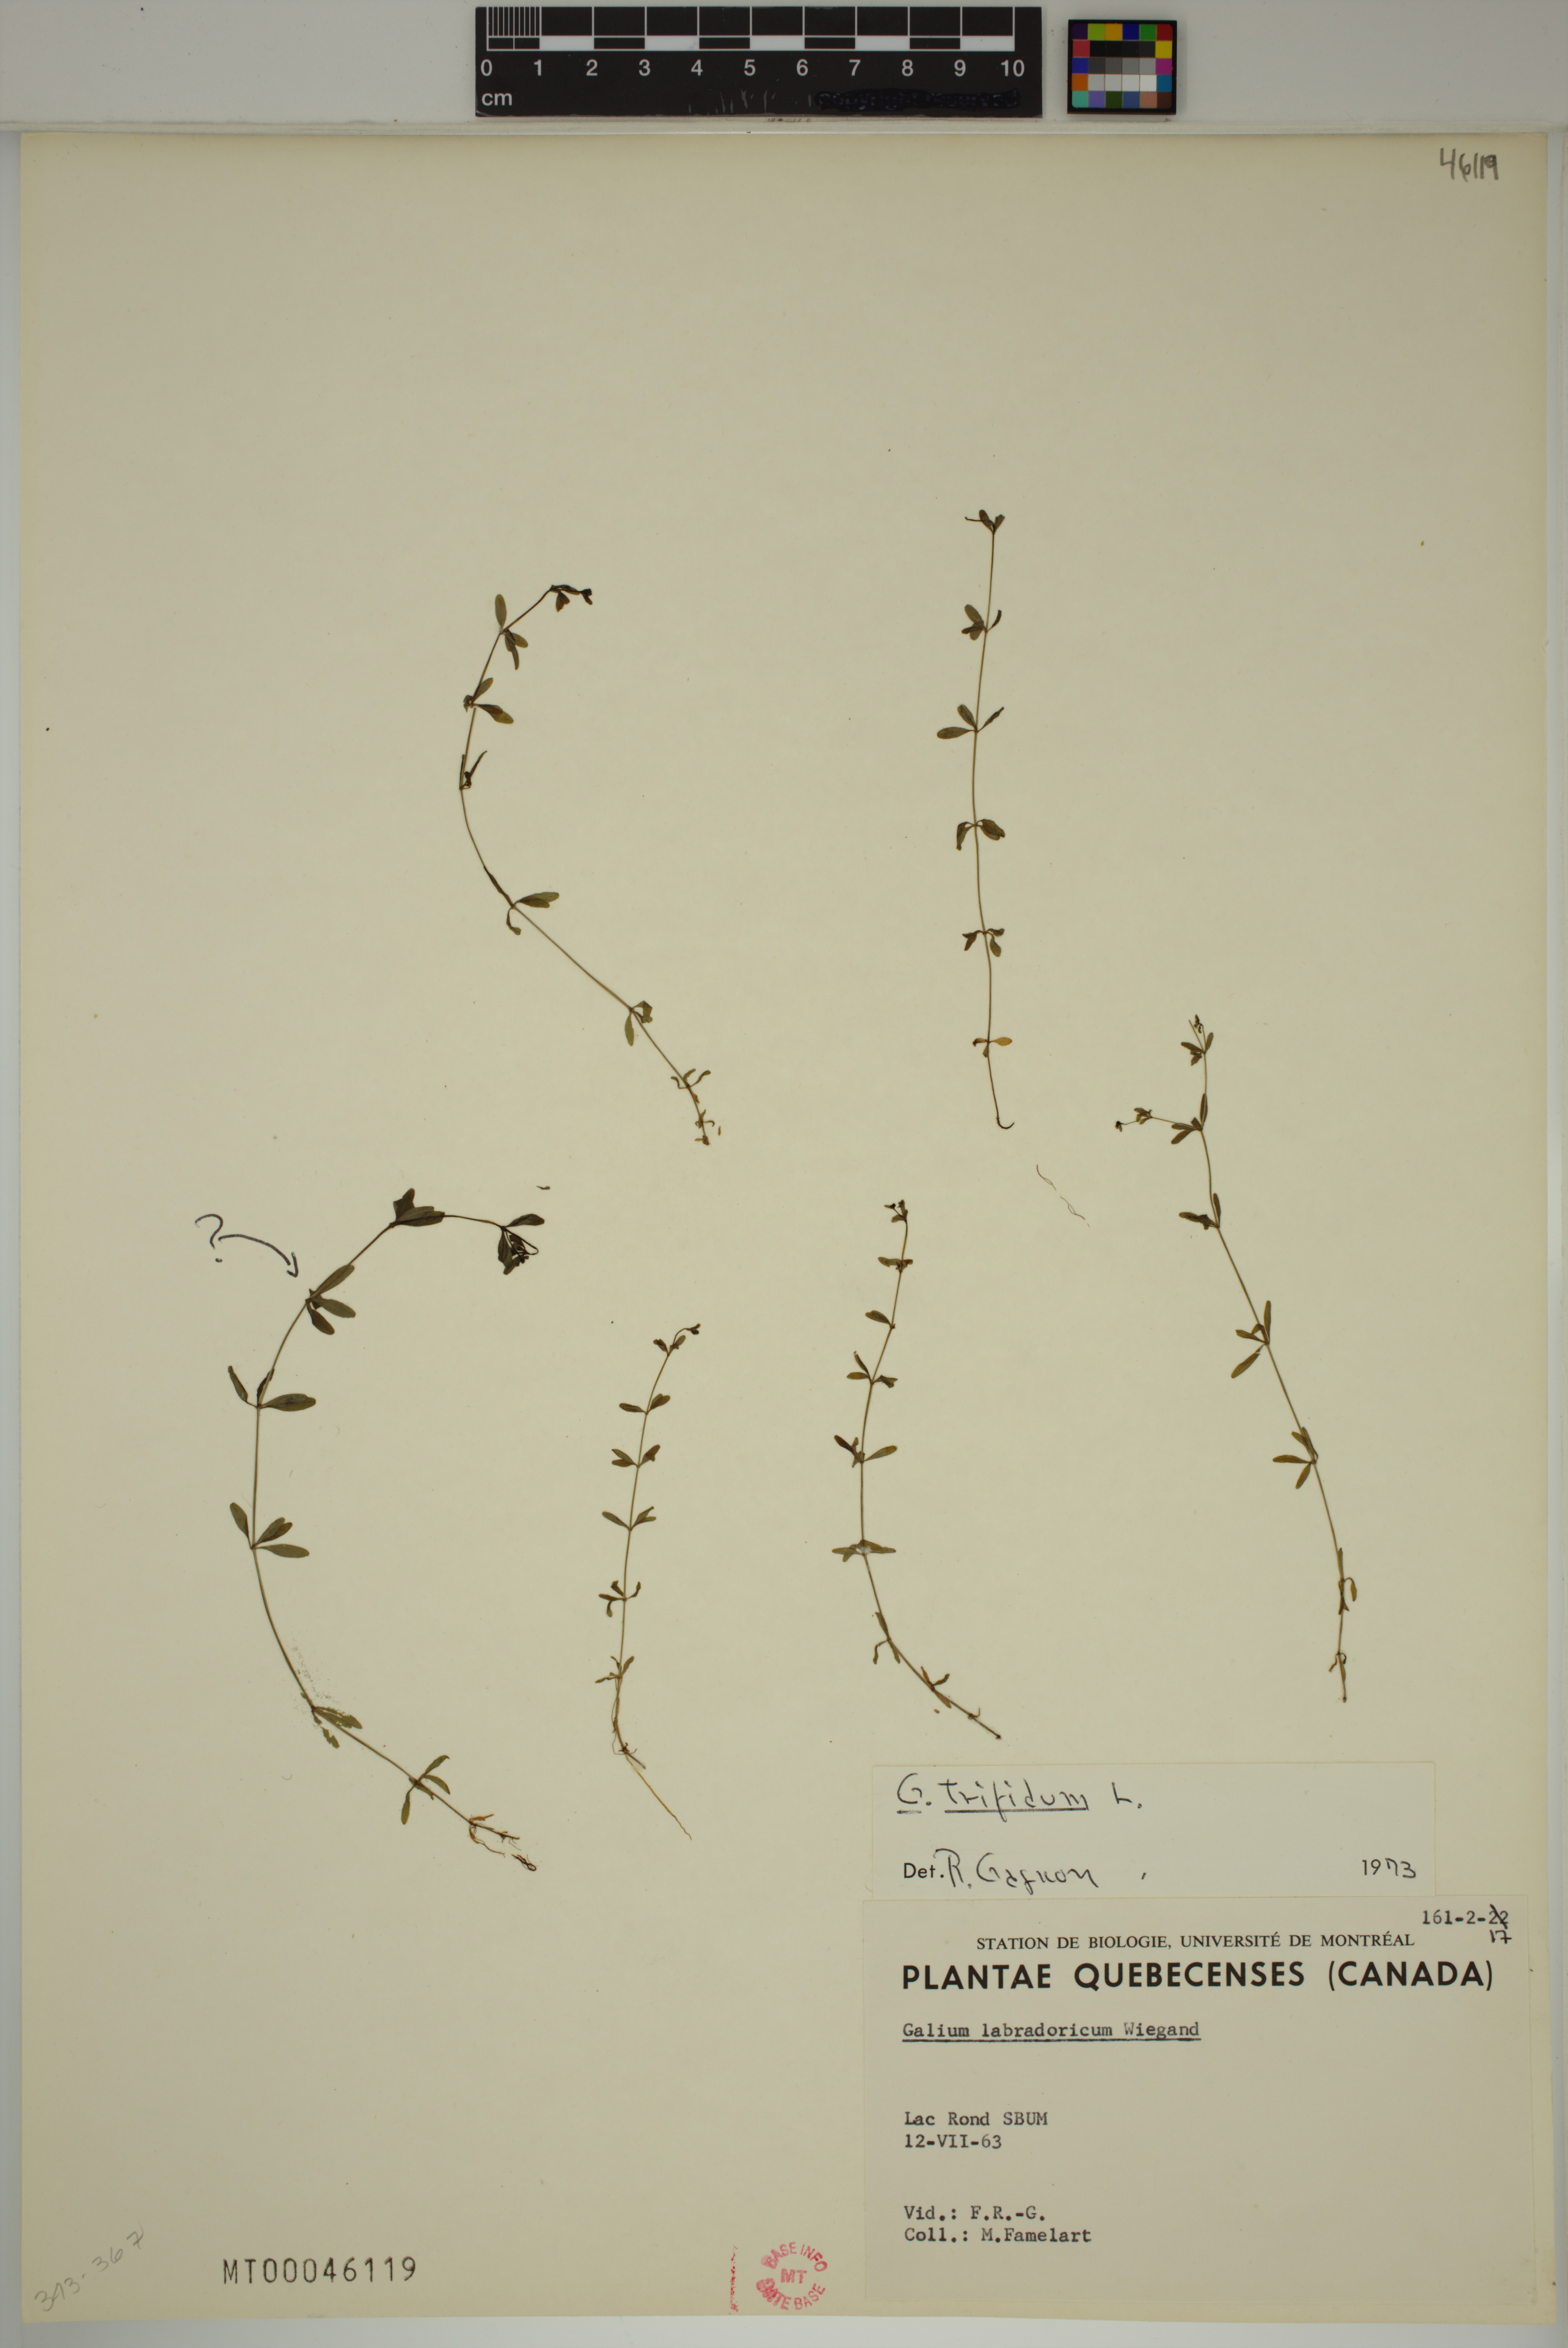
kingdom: Plantae
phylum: Tracheophyta
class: Magnoliopsida
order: Gentianales
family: Rubiaceae
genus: Galium
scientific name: Galium trifidum
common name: Small bedstraw
